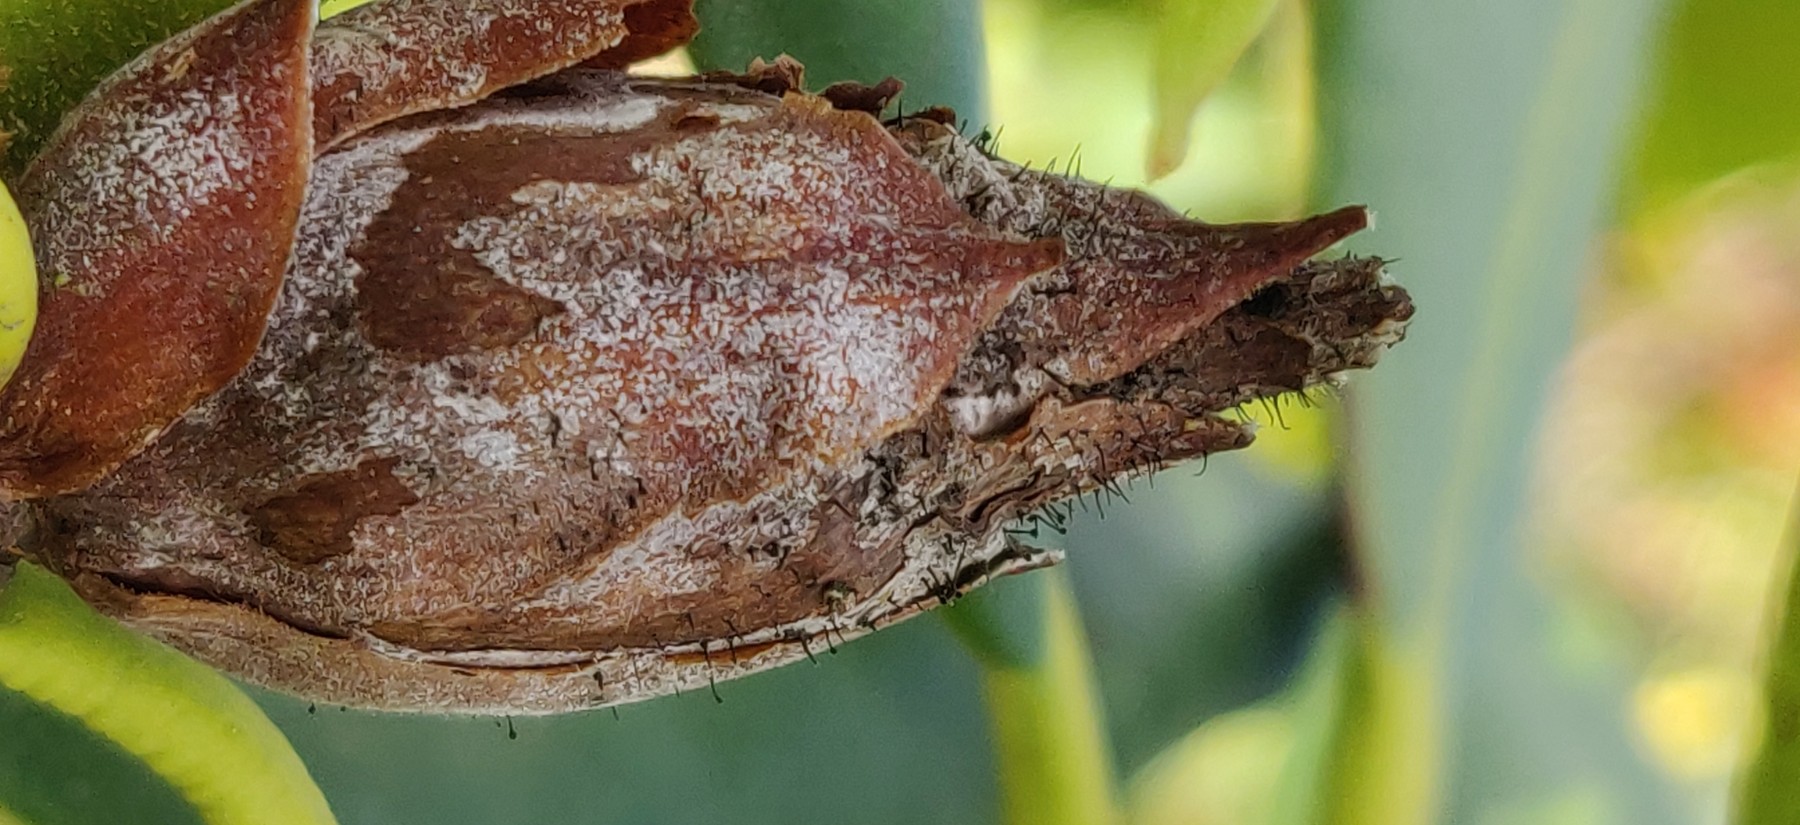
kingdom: Fungi
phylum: Ascomycota
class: Dothideomycetes
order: Pleosporales
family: Melanommataceae
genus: Seifertia
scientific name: Seifertia azaleae
